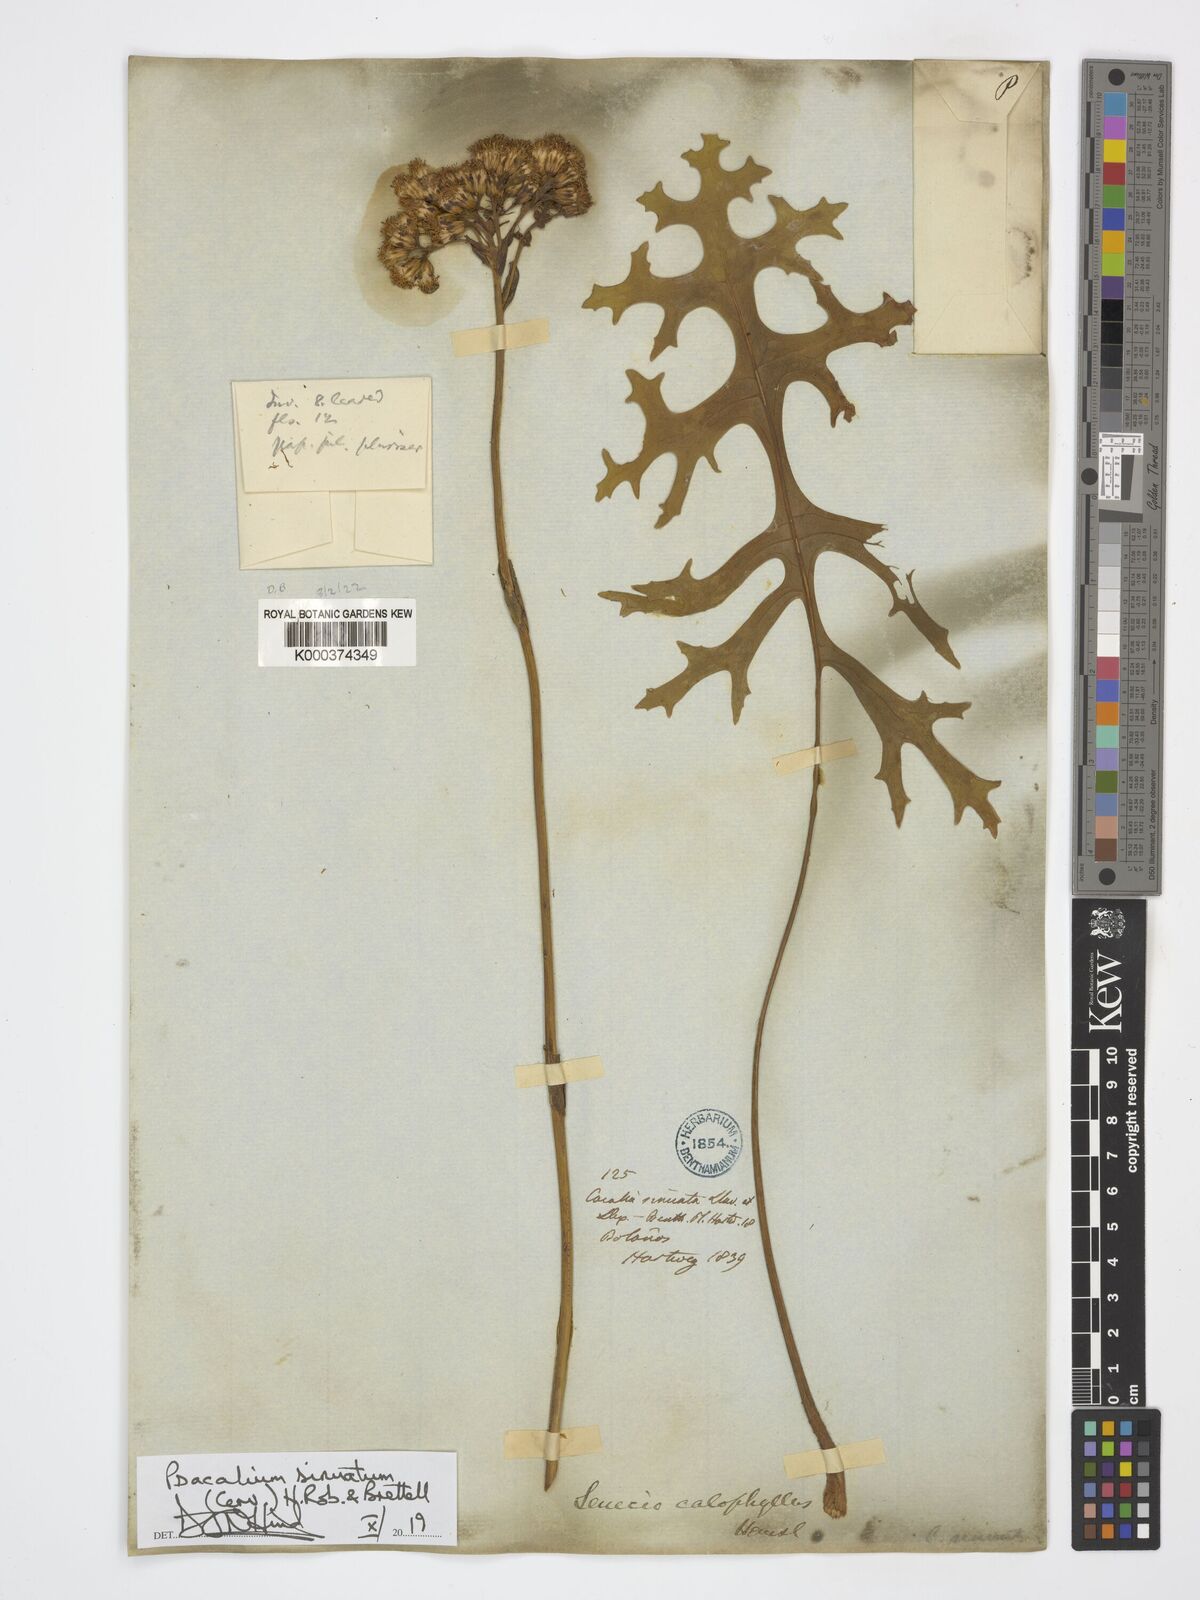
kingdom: Plantae
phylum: Tracheophyta
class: Magnoliopsida
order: Asterales
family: Asteraceae
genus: Psacalium
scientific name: Psacalium sinuatum
